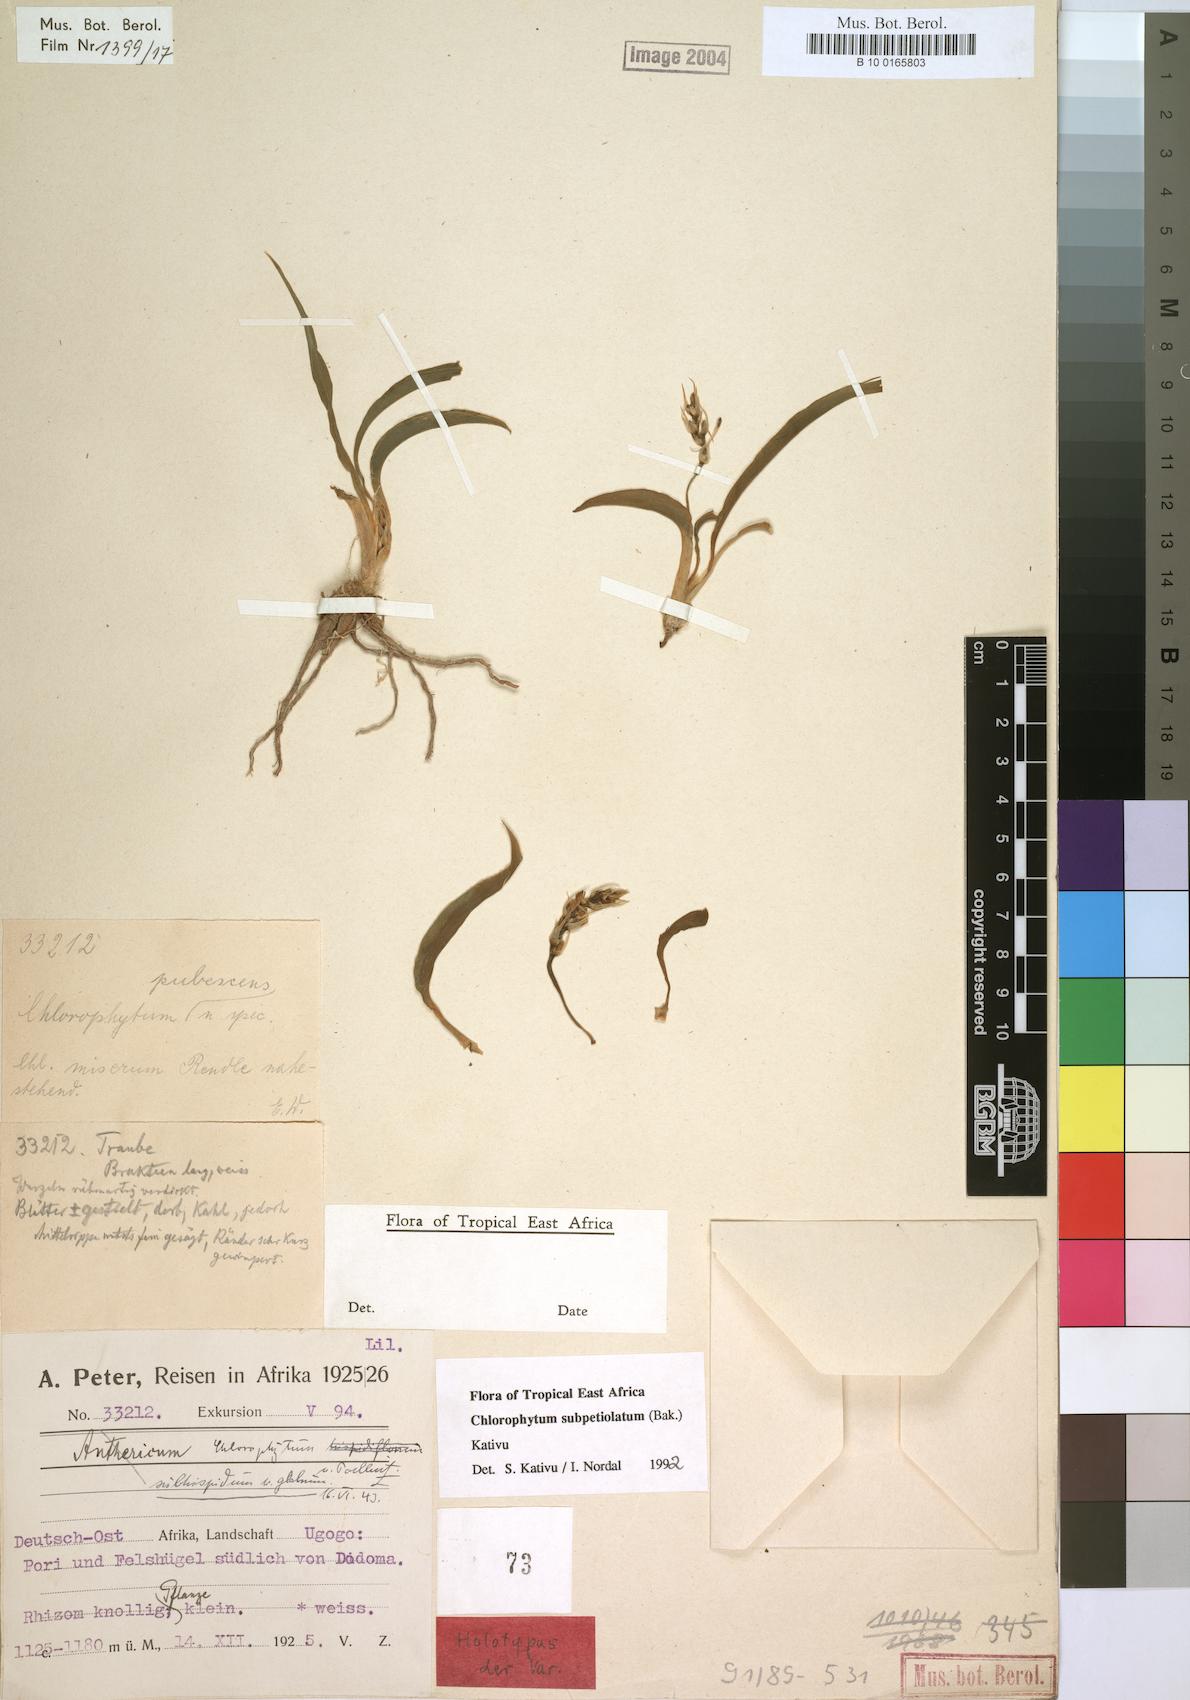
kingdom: Plantae
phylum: Tracheophyta
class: Liliopsida
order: Asparagales
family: Asparagaceae
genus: Chlorophytum
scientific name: Chlorophytum subpetiolatum
